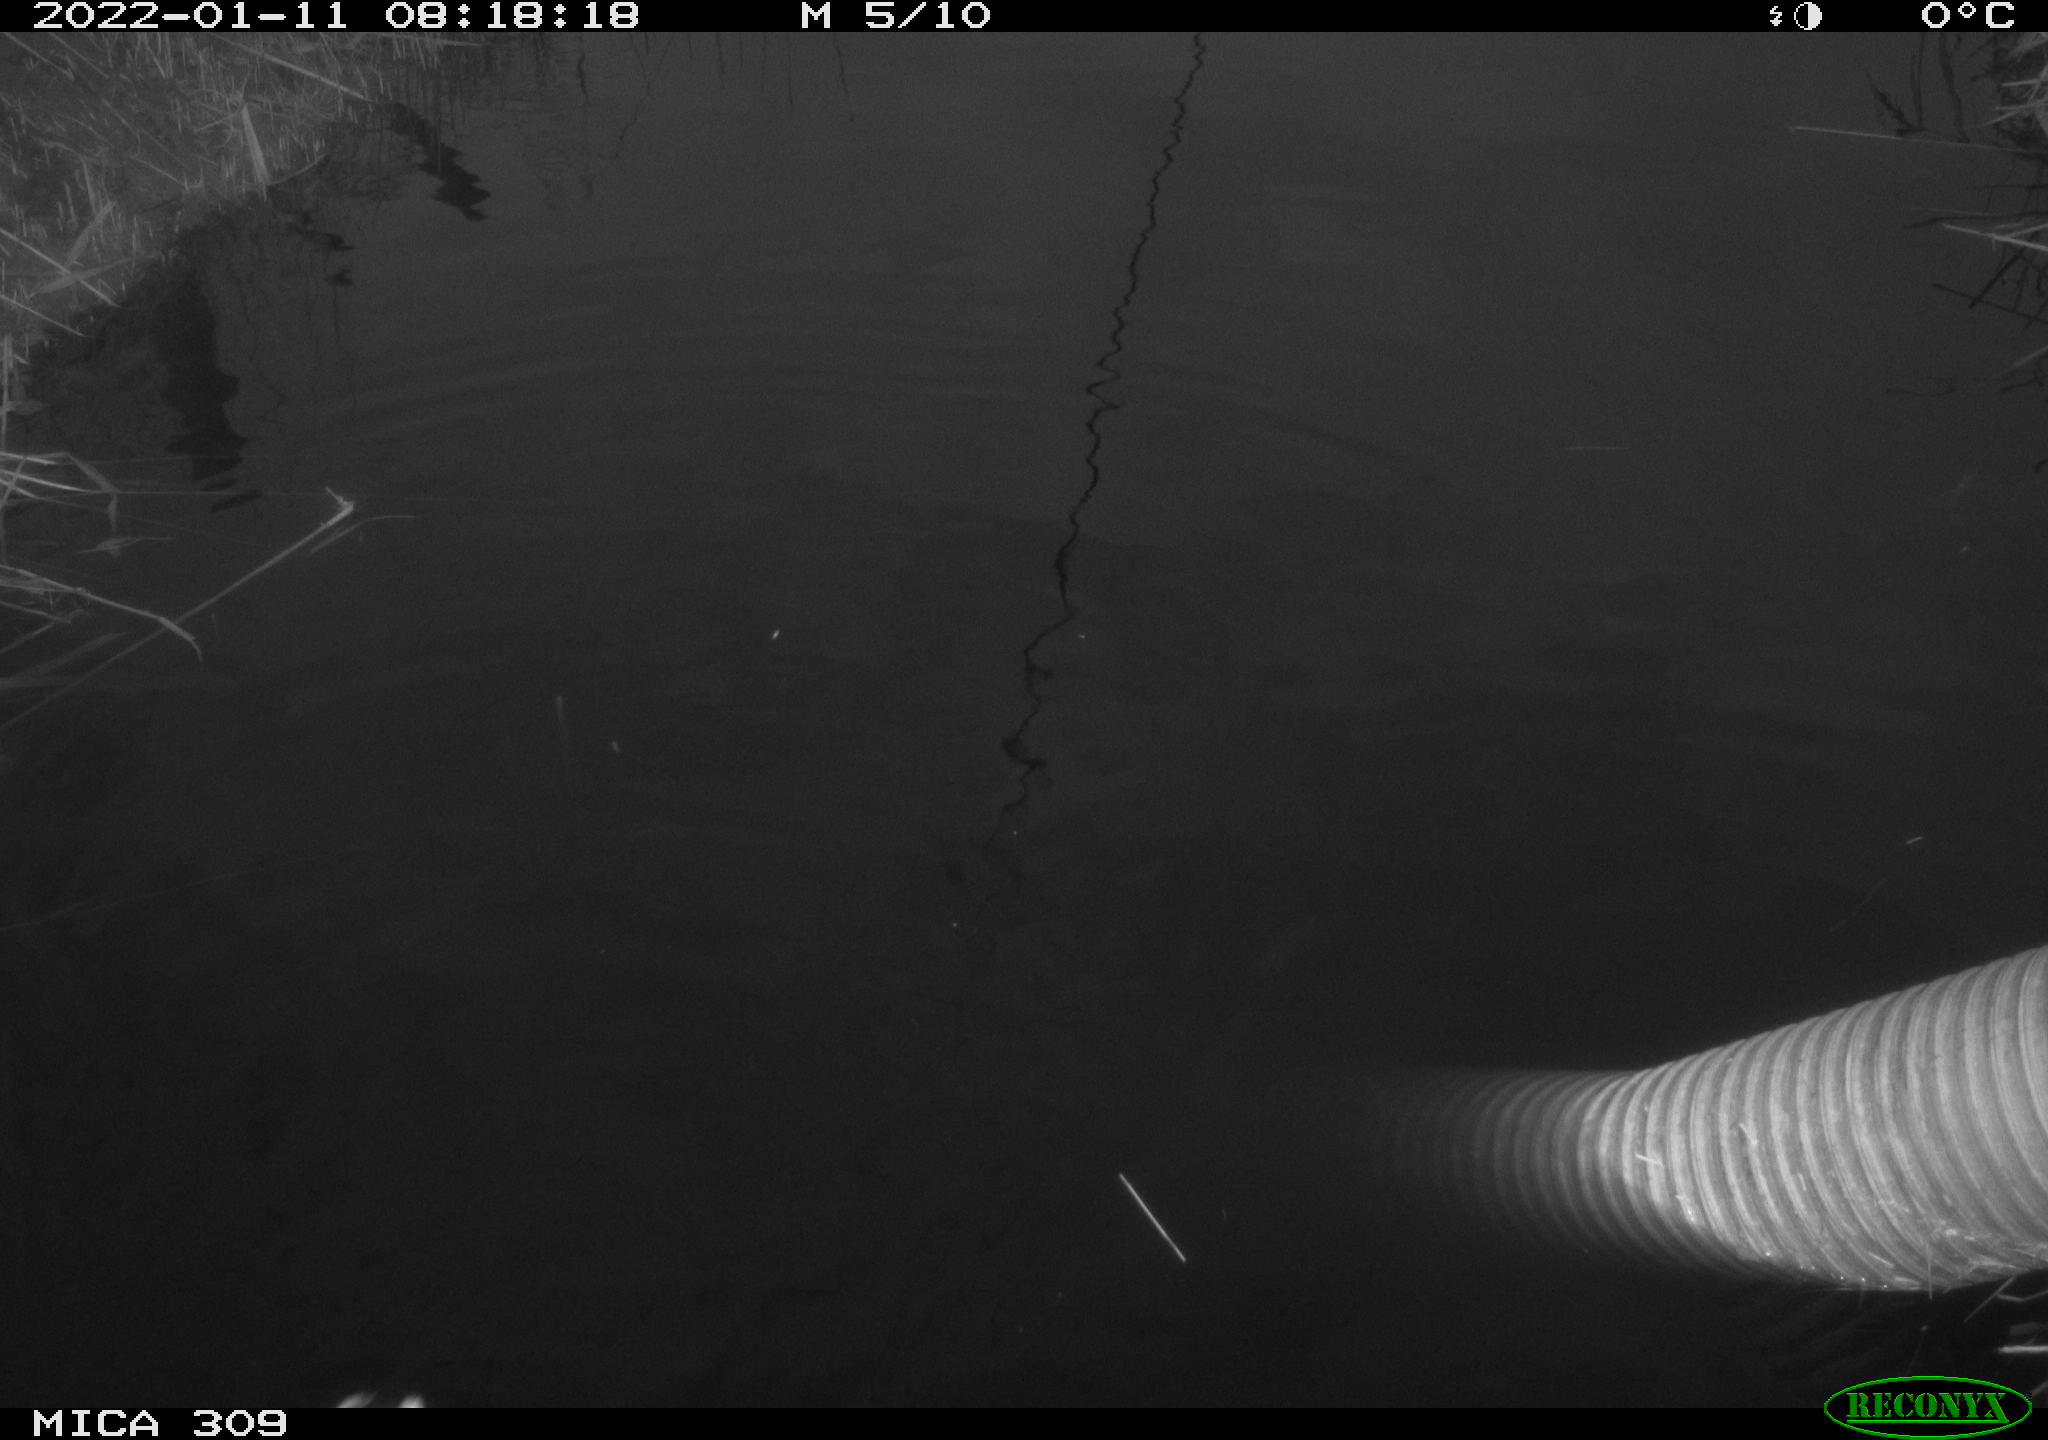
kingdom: Animalia
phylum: Chordata
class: Aves
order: Gruiformes
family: Rallidae
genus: Gallinula
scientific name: Gallinula chloropus
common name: Common moorhen
